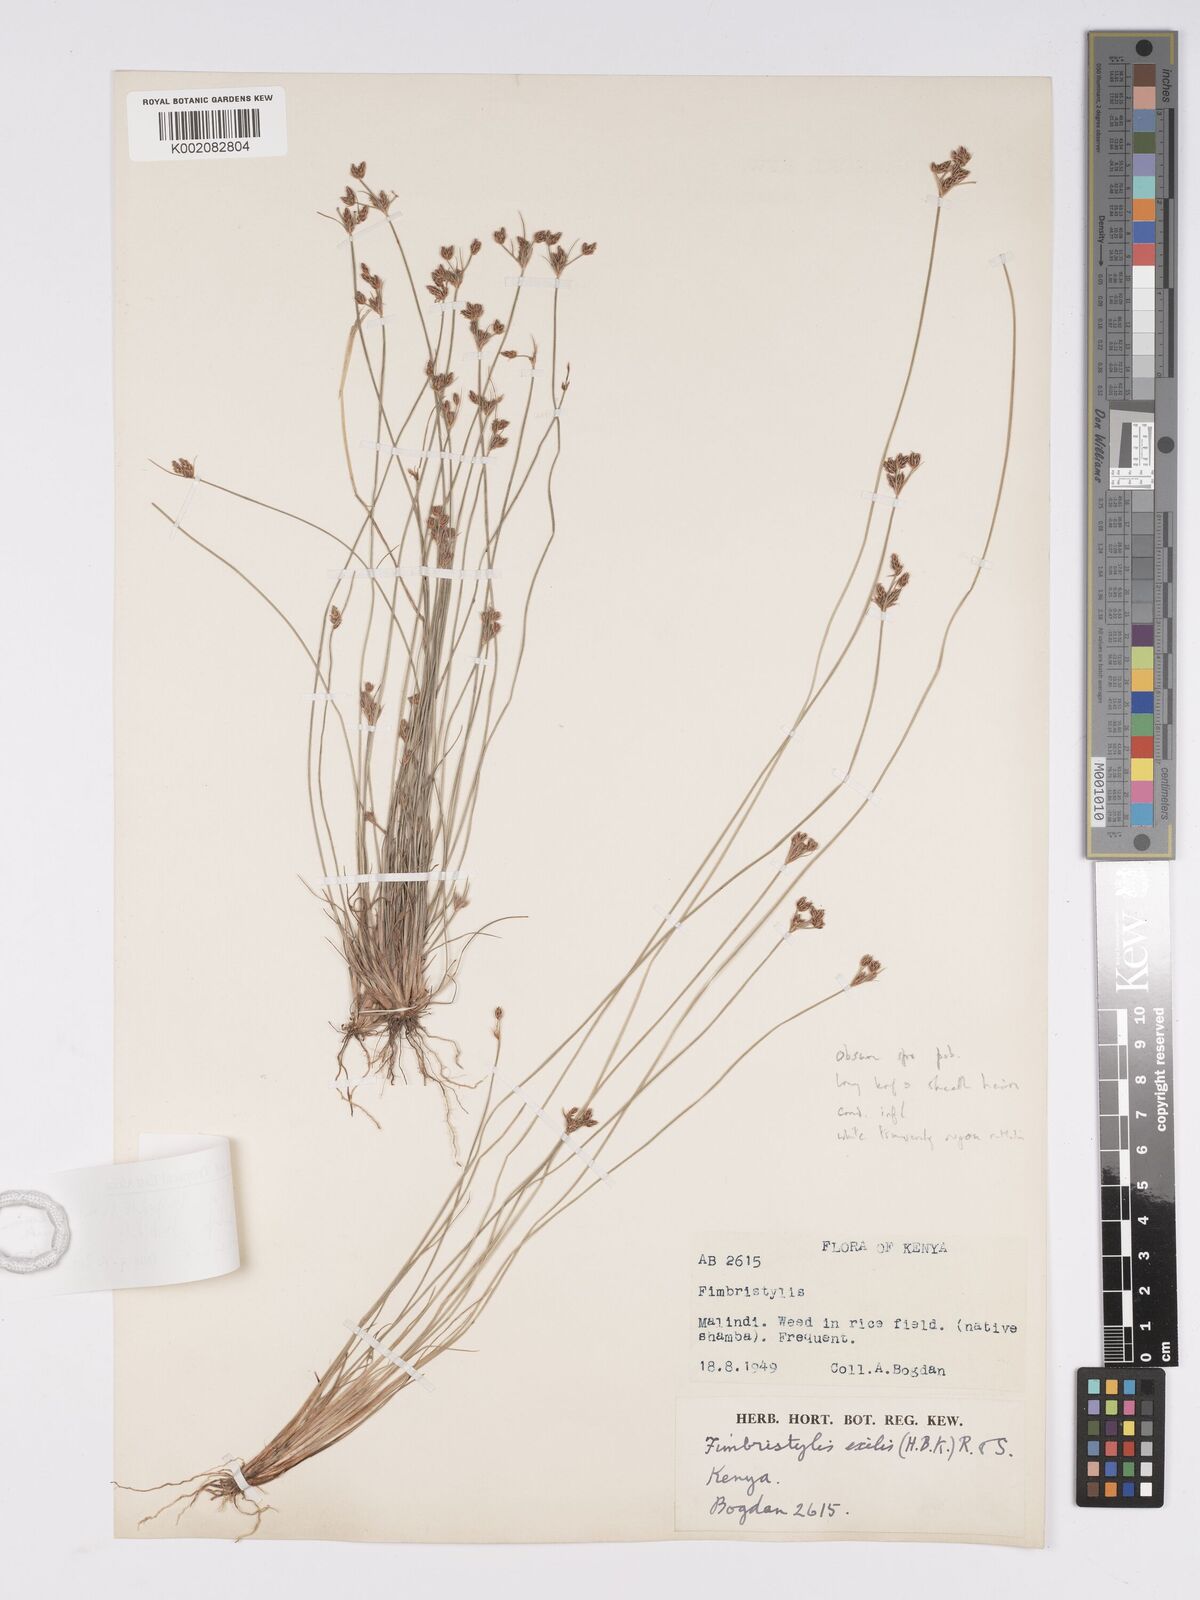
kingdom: Plantae
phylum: Tracheophyta
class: Liliopsida
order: Poales
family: Cyperaceae
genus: Bulbostylis
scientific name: Bulbostylis hispidula
